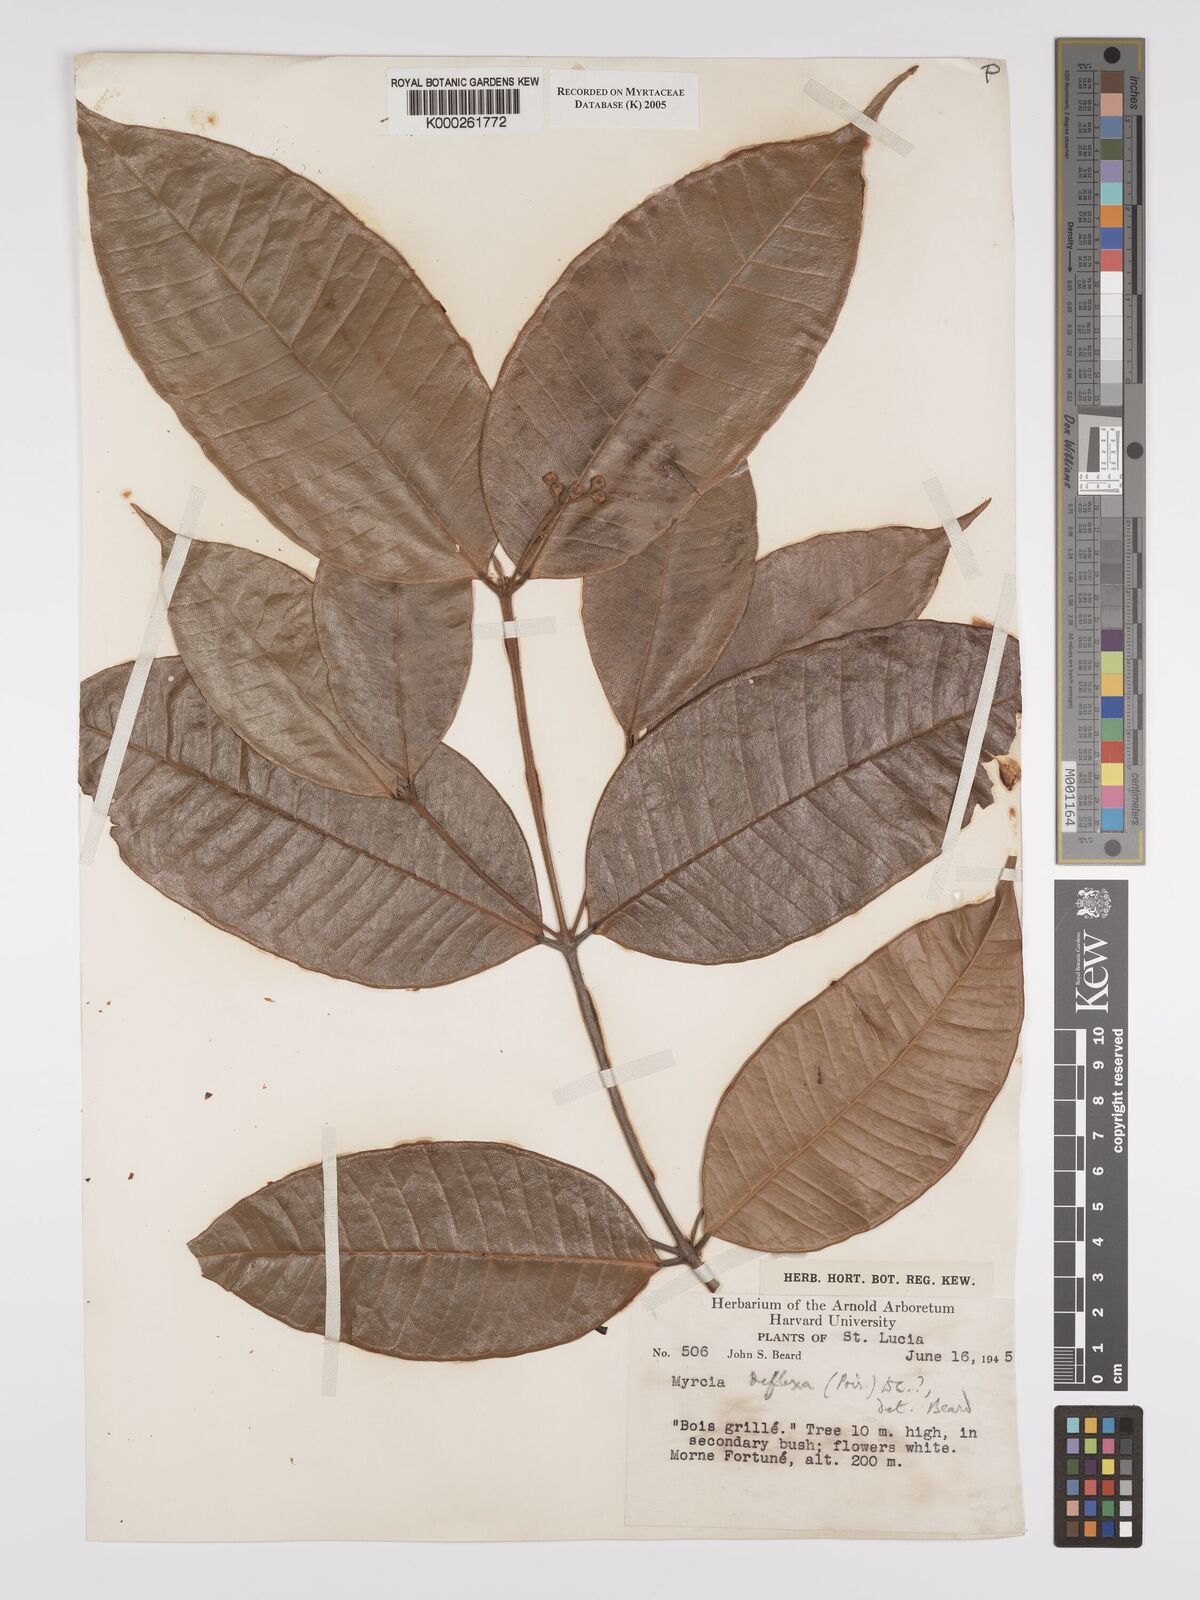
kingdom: Plantae
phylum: Tracheophyta
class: Magnoliopsida
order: Myrtales
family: Myrtaceae
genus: Myrcia
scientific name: Myrcia deflexa
